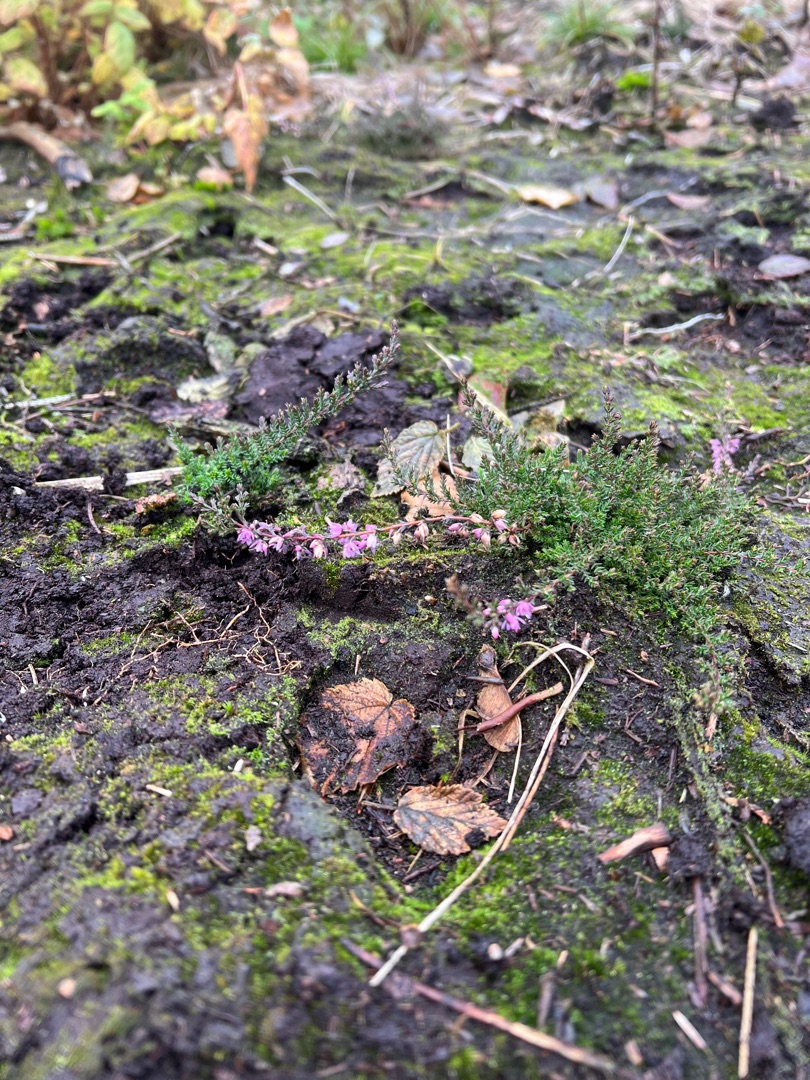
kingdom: Plantae
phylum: Tracheophyta
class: Magnoliopsida
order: Ericales
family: Ericaceae
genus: Calluna
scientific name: Calluna vulgaris
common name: Hedelyng
